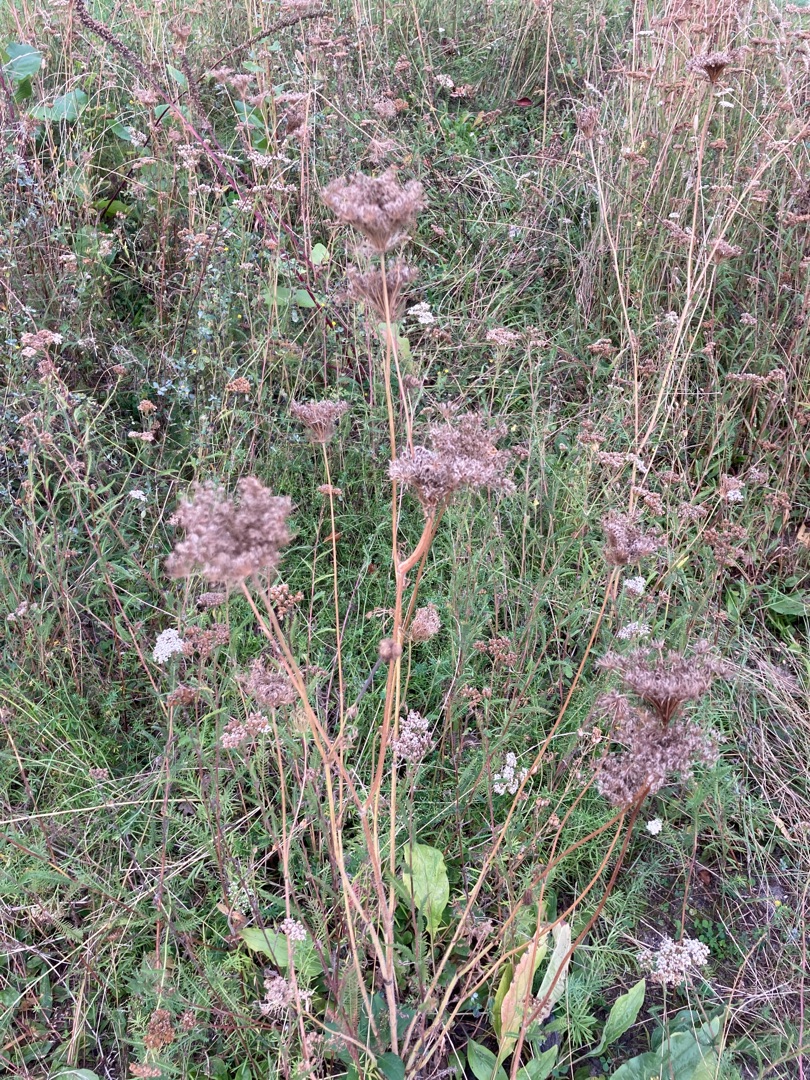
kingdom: Plantae
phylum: Tracheophyta
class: Magnoliopsida
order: Apiales
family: Apiaceae
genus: Daucus
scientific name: Daucus carota
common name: Gulerod
